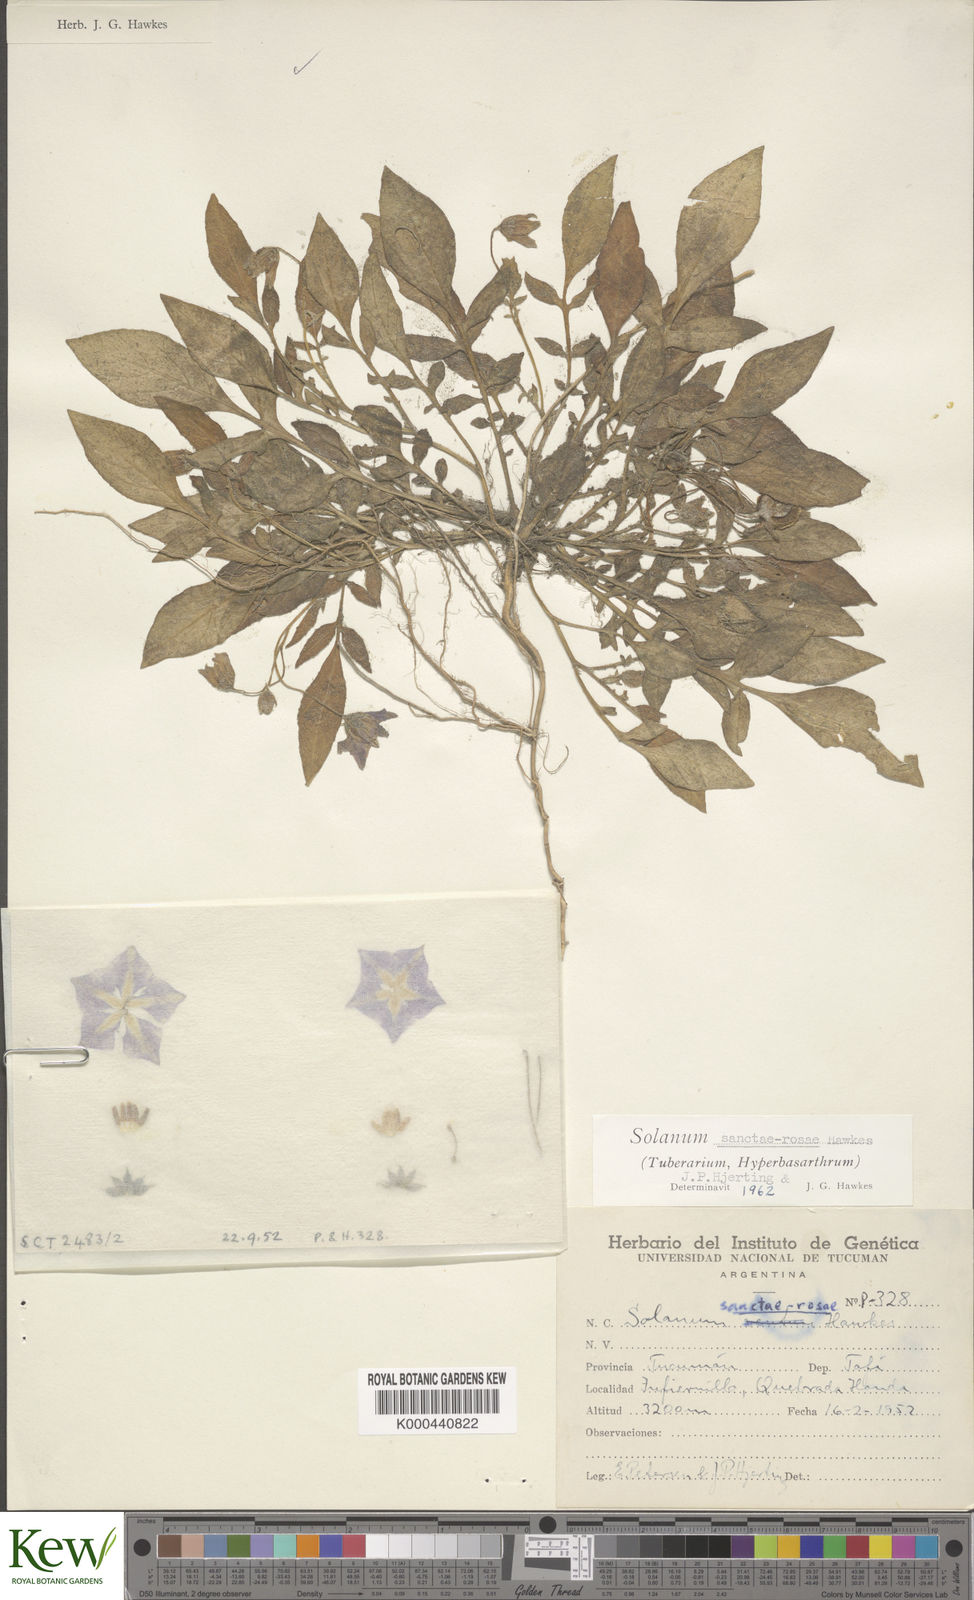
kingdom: Plantae
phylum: Tracheophyta
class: Magnoliopsida
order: Solanales
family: Solanaceae
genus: Solanum
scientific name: Solanum boliviense
